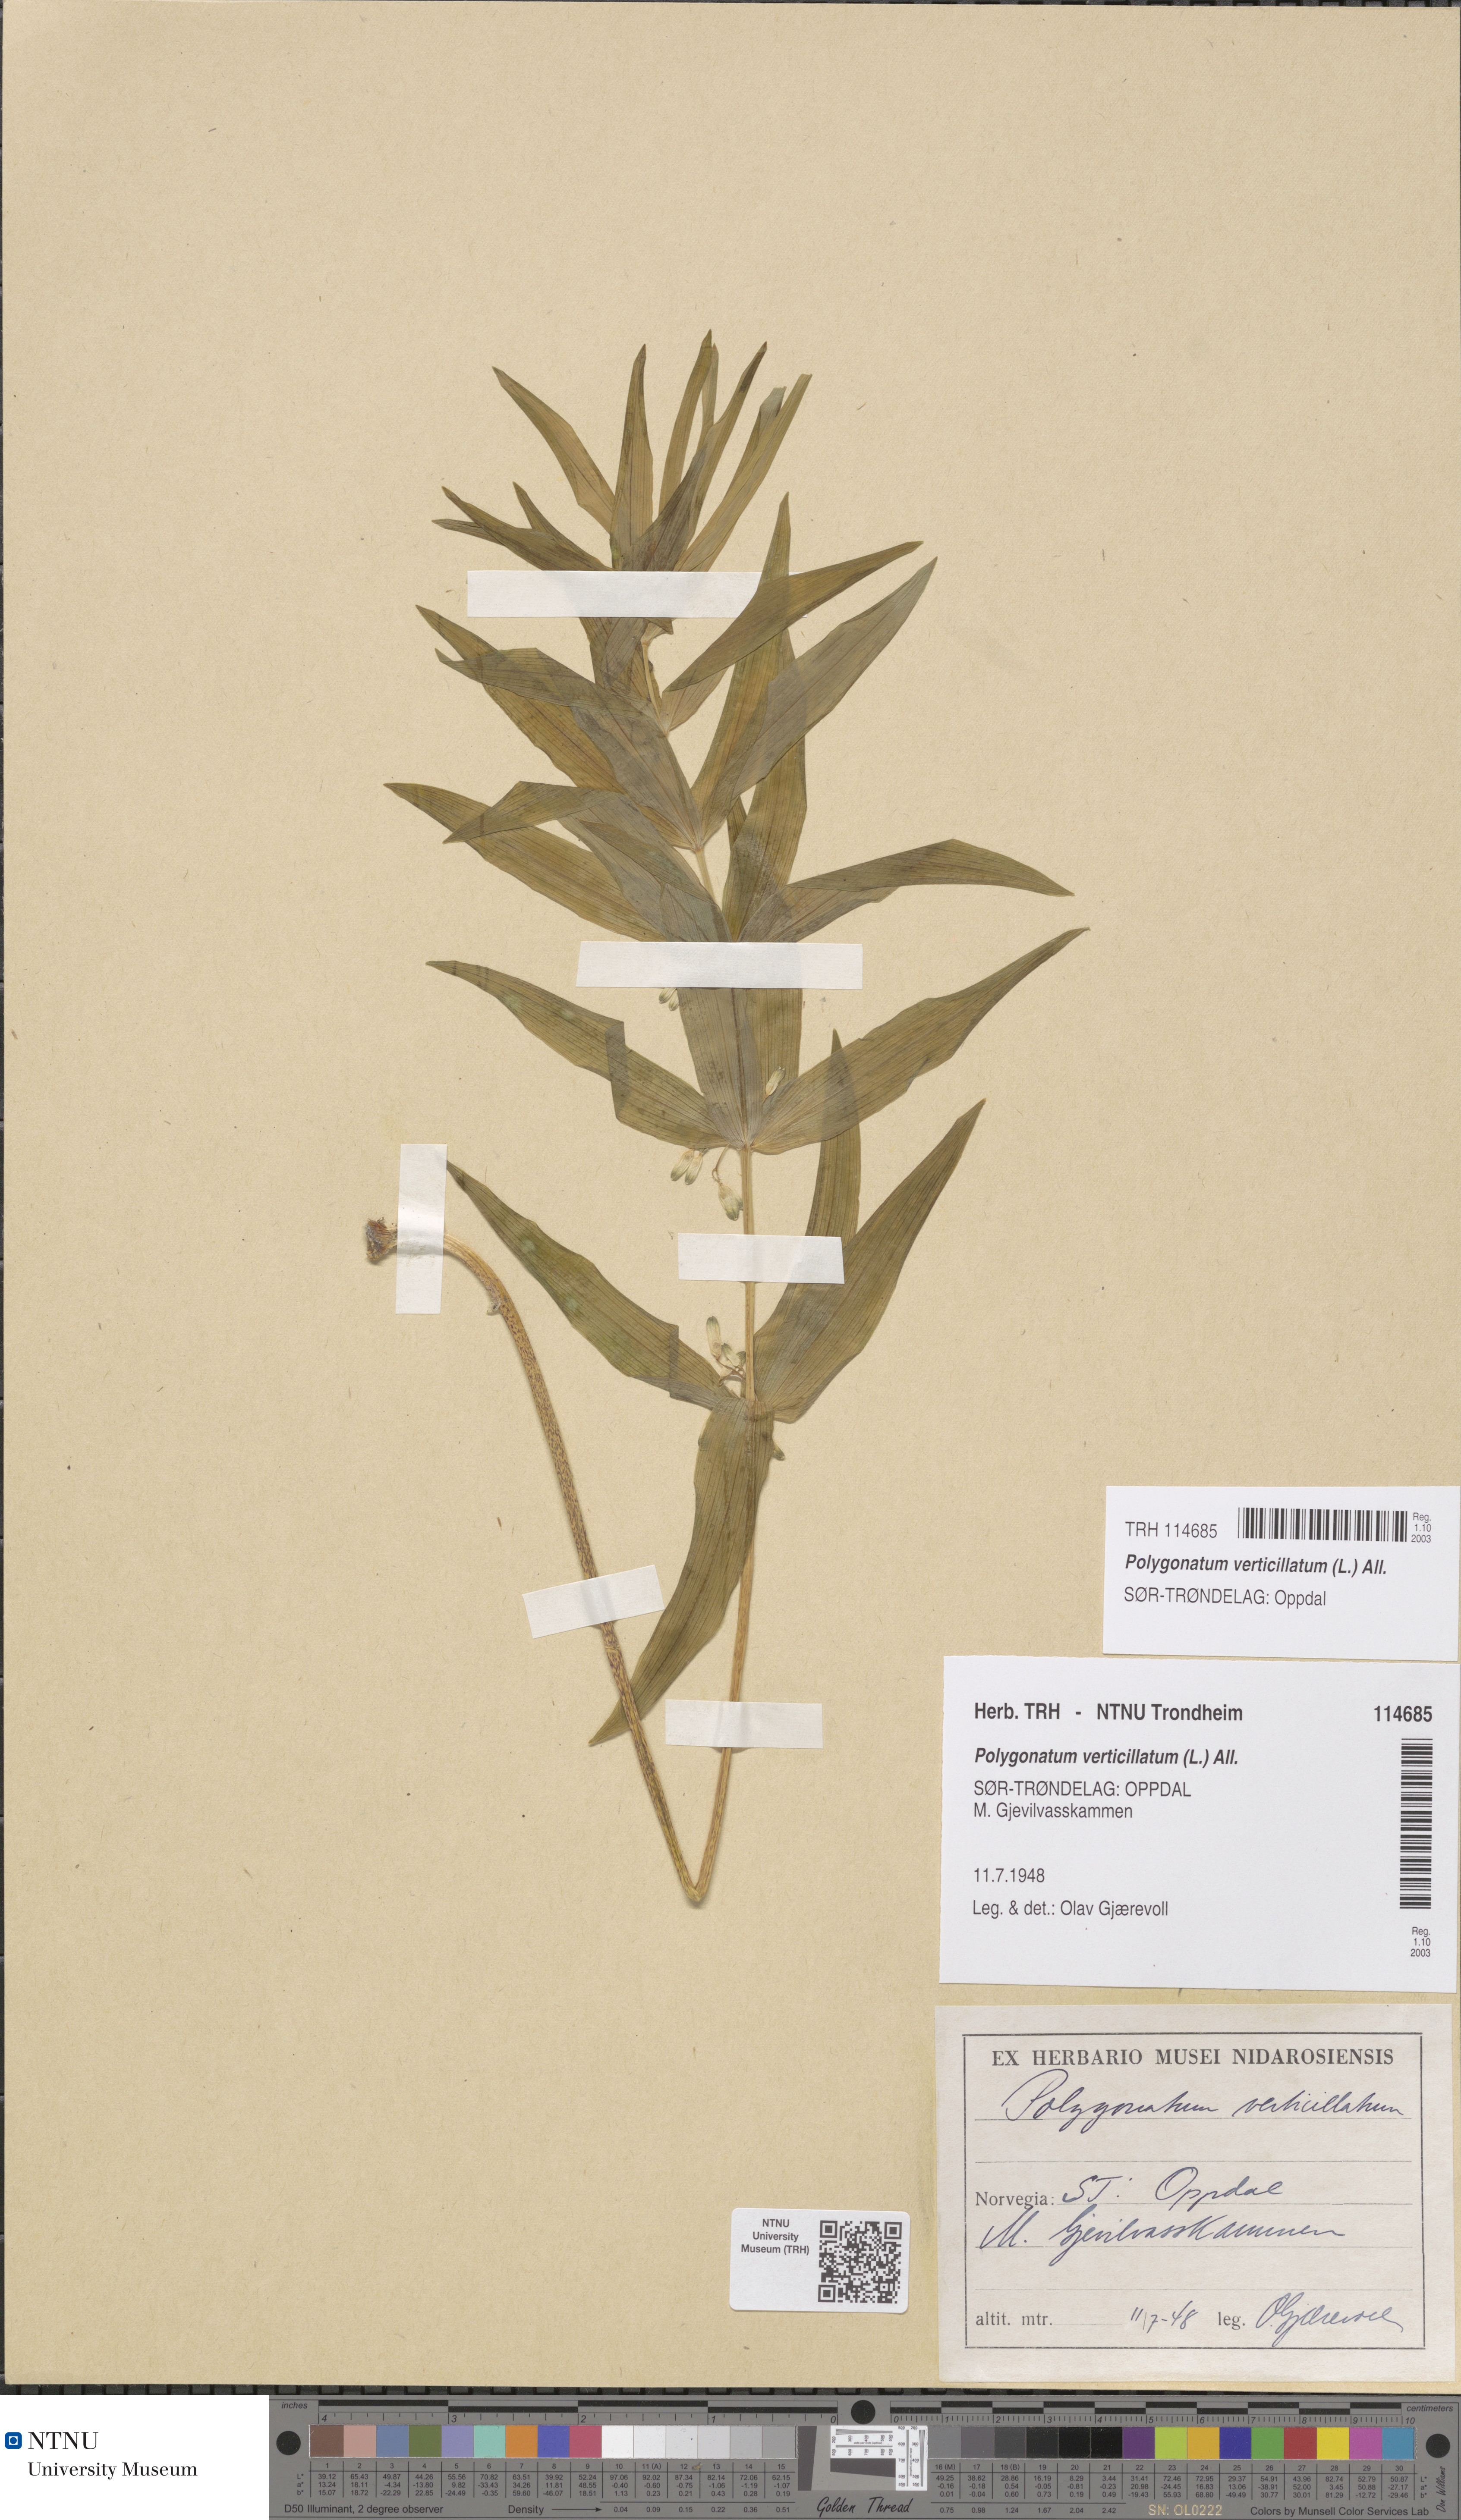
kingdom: Plantae
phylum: Tracheophyta
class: Liliopsida
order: Asparagales
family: Asparagaceae
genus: Polygonatum
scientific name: Polygonatum verticillatum
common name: Whorled solomon's-seal
